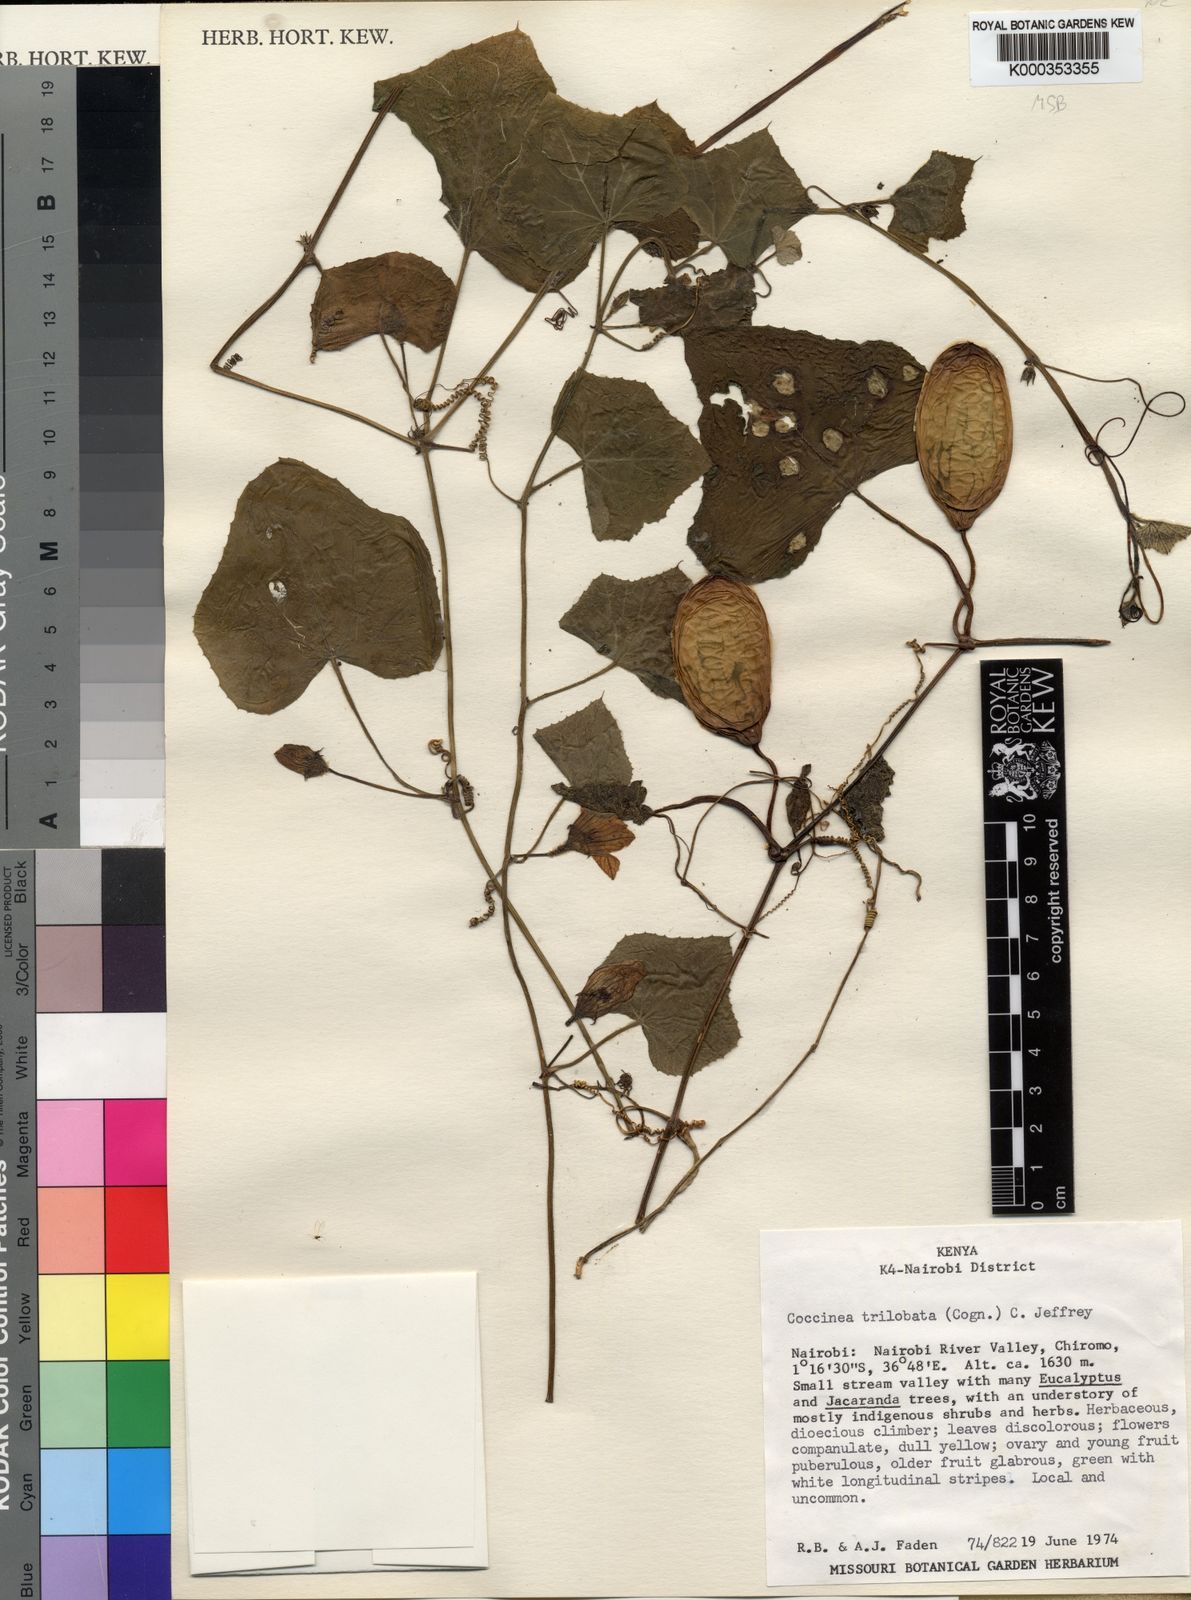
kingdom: Plantae
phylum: Tracheophyta
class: Magnoliopsida
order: Cucurbitales
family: Cucurbitaceae
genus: Coccinia
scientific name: Coccinia trilobata
